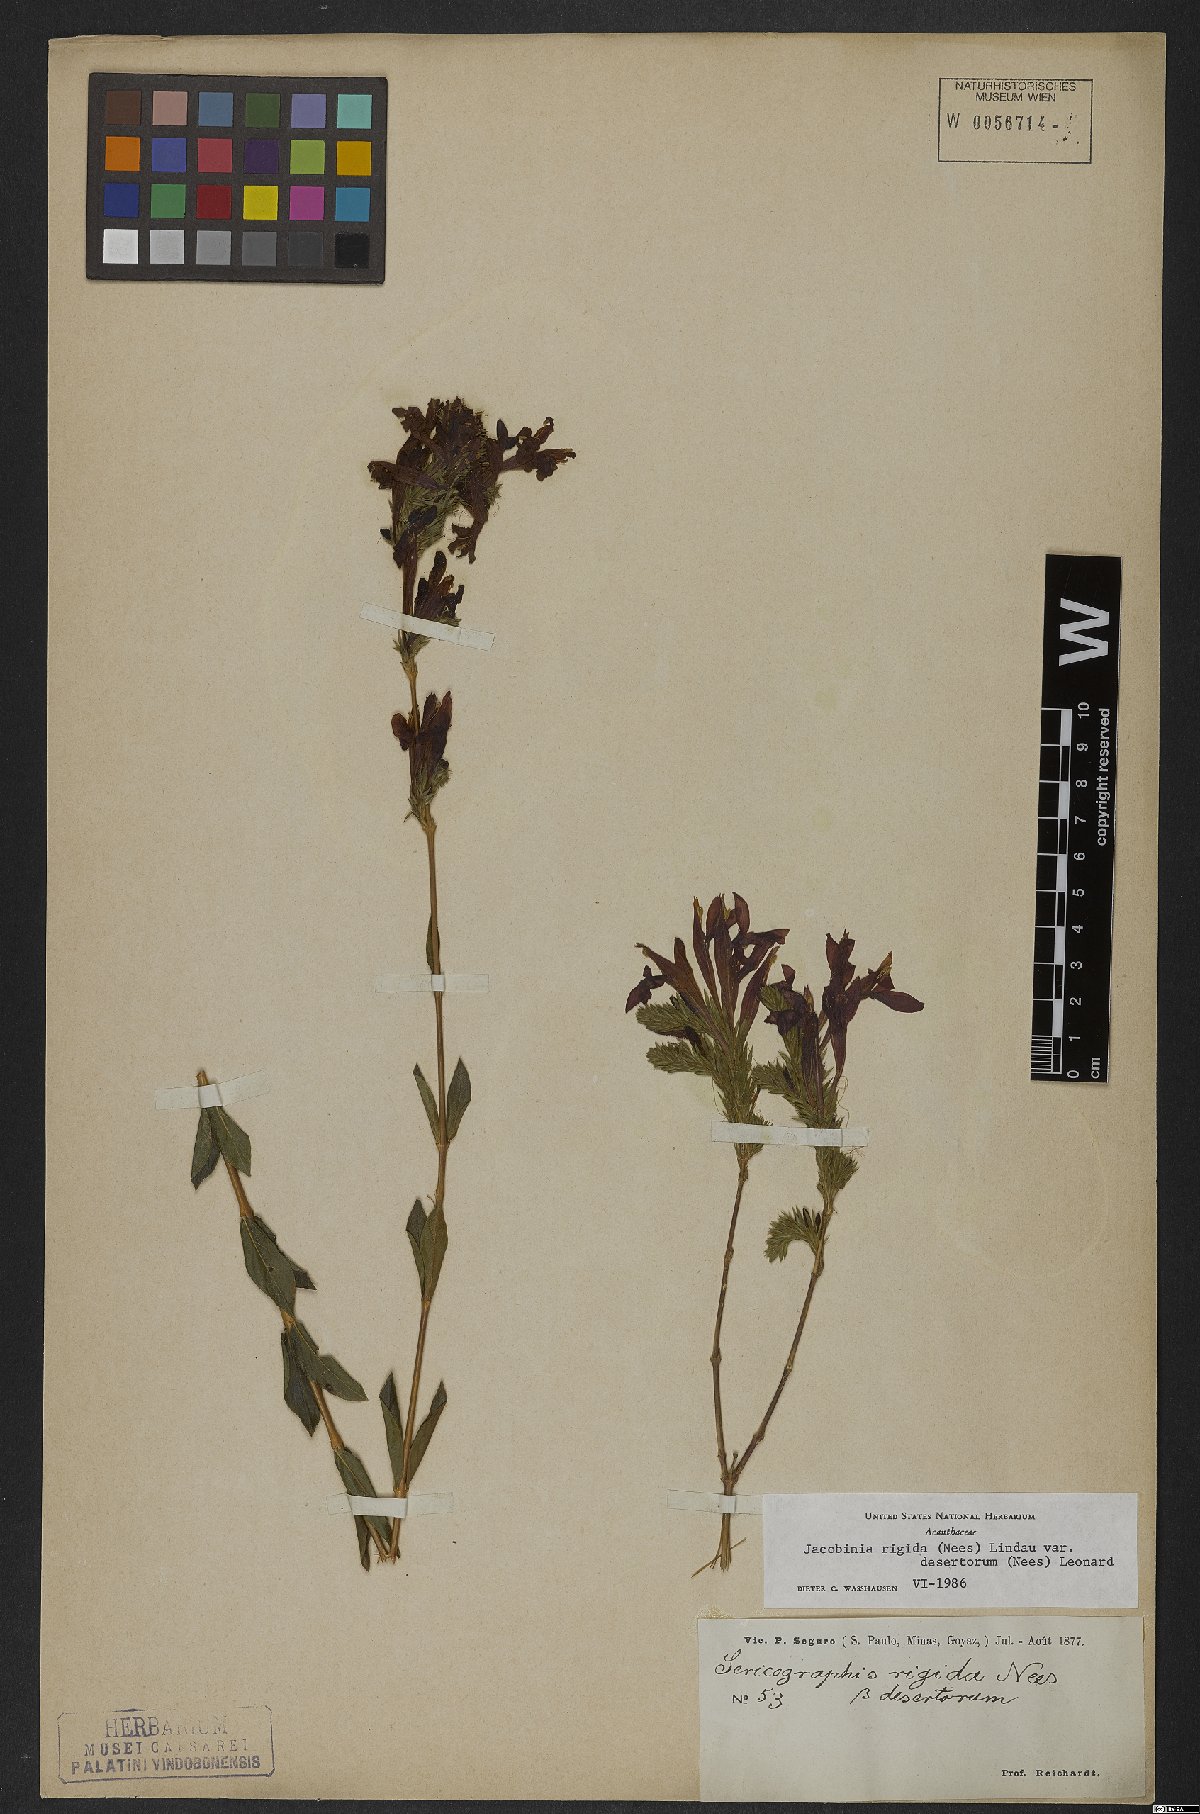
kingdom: Plantae
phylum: Tracheophyta
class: Magnoliopsida
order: Lamiales
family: Acanthaceae
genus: Justicia
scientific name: Justicia rigida
